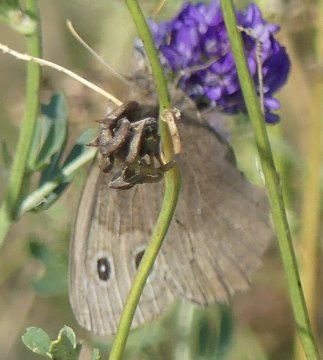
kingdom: Animalia
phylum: Arthropoda
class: Insecta
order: Lepidoptera
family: Nymphalidae
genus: Cercyonis
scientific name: Cercyonis pegala
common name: Common Wood-Nymph
